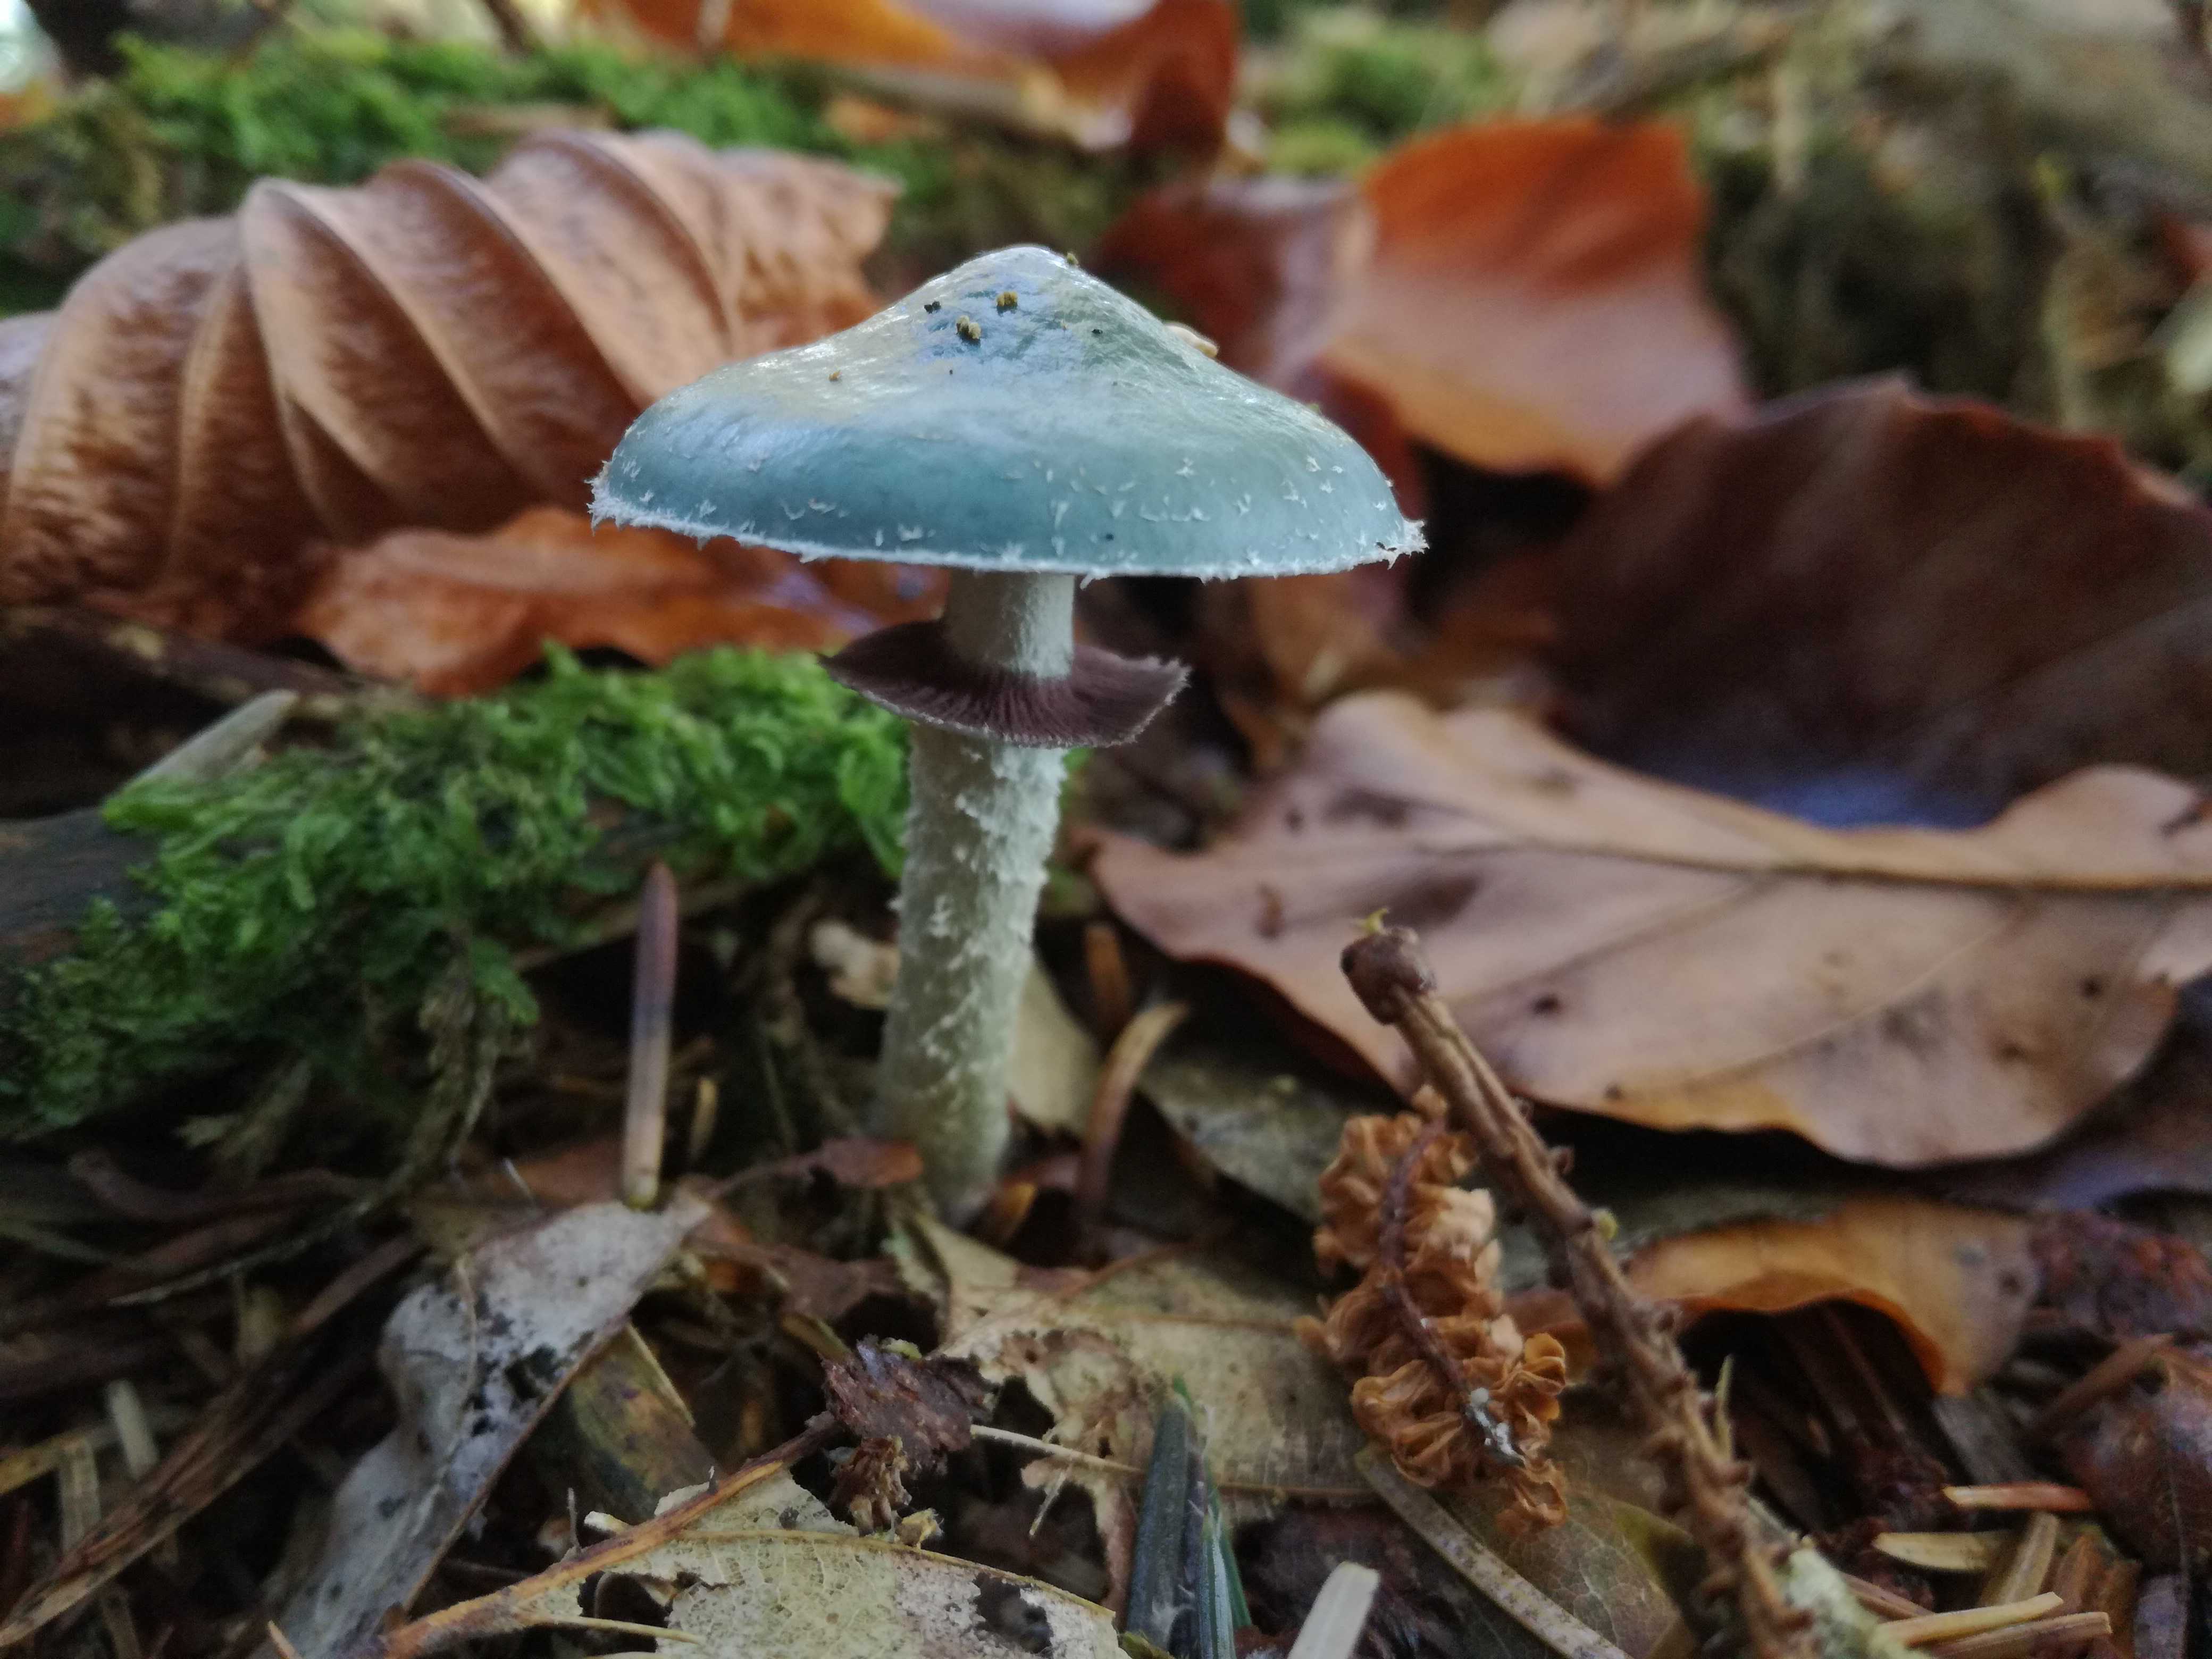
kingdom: Fungi
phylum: Basidiomycota
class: Agaricomycetes
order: Agaricales
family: Strophariaceae
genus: Stropharia
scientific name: Stropharia aeruginosa
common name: spanskgrøn bredblad
